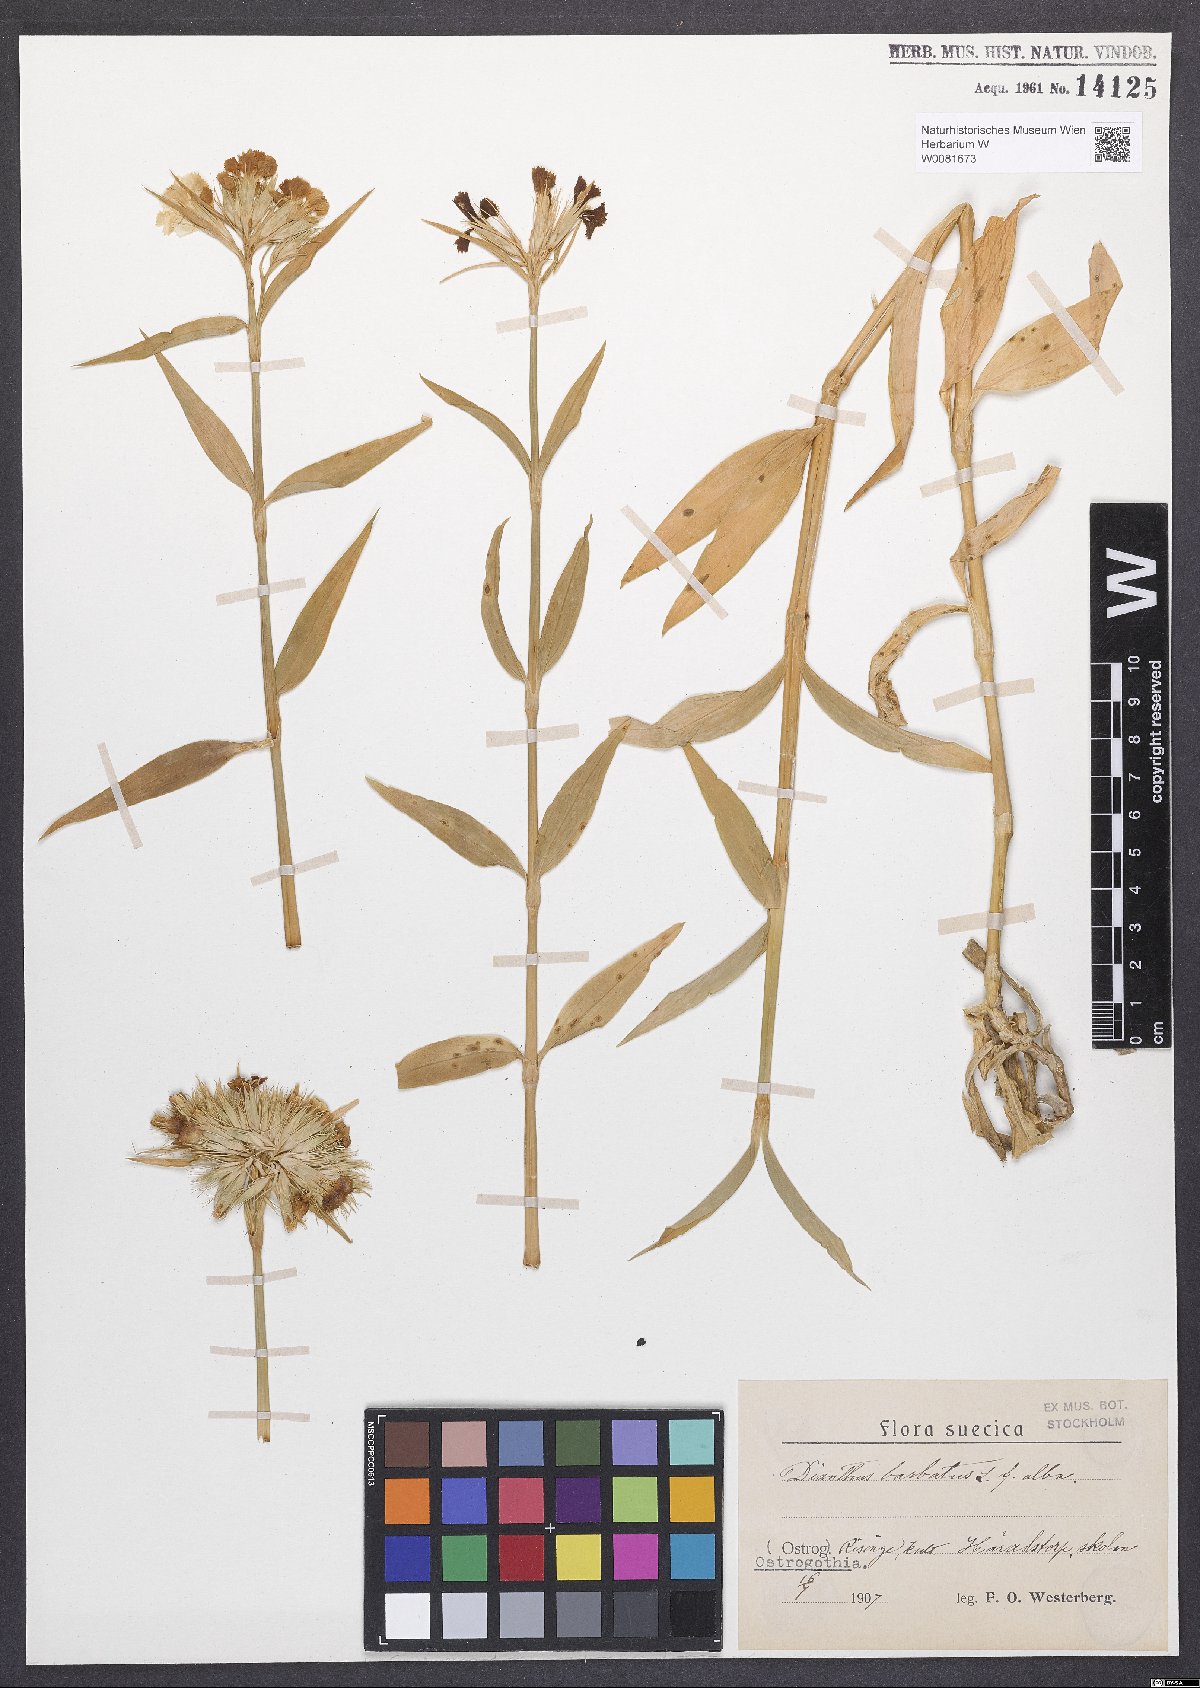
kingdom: Plantae
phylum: Tracheophyta
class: Magnoliopsida
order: Caryophyllales
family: Caryophyllaceae
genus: Dianthus
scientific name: Dianthus barbatus
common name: Sweet-william
